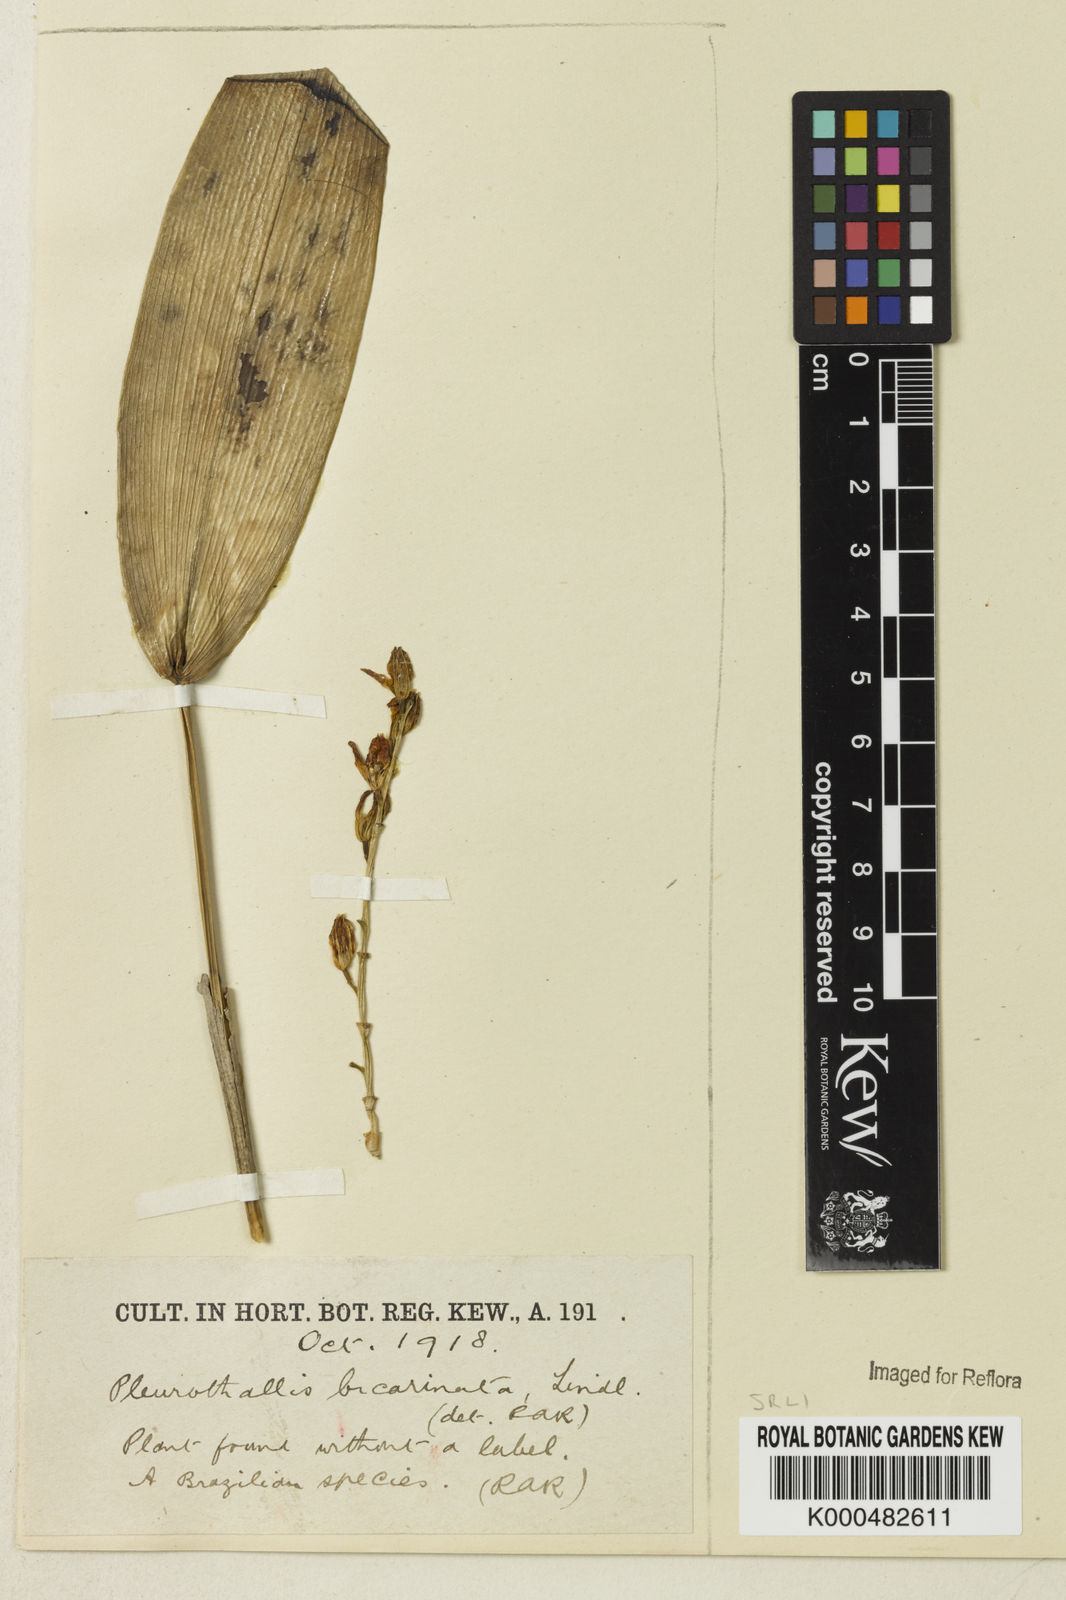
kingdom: Plantae
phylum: Tracheophyta
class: Liliopsida
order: Asparagales
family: Orchidaceae
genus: Acianthera
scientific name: Acianthera
